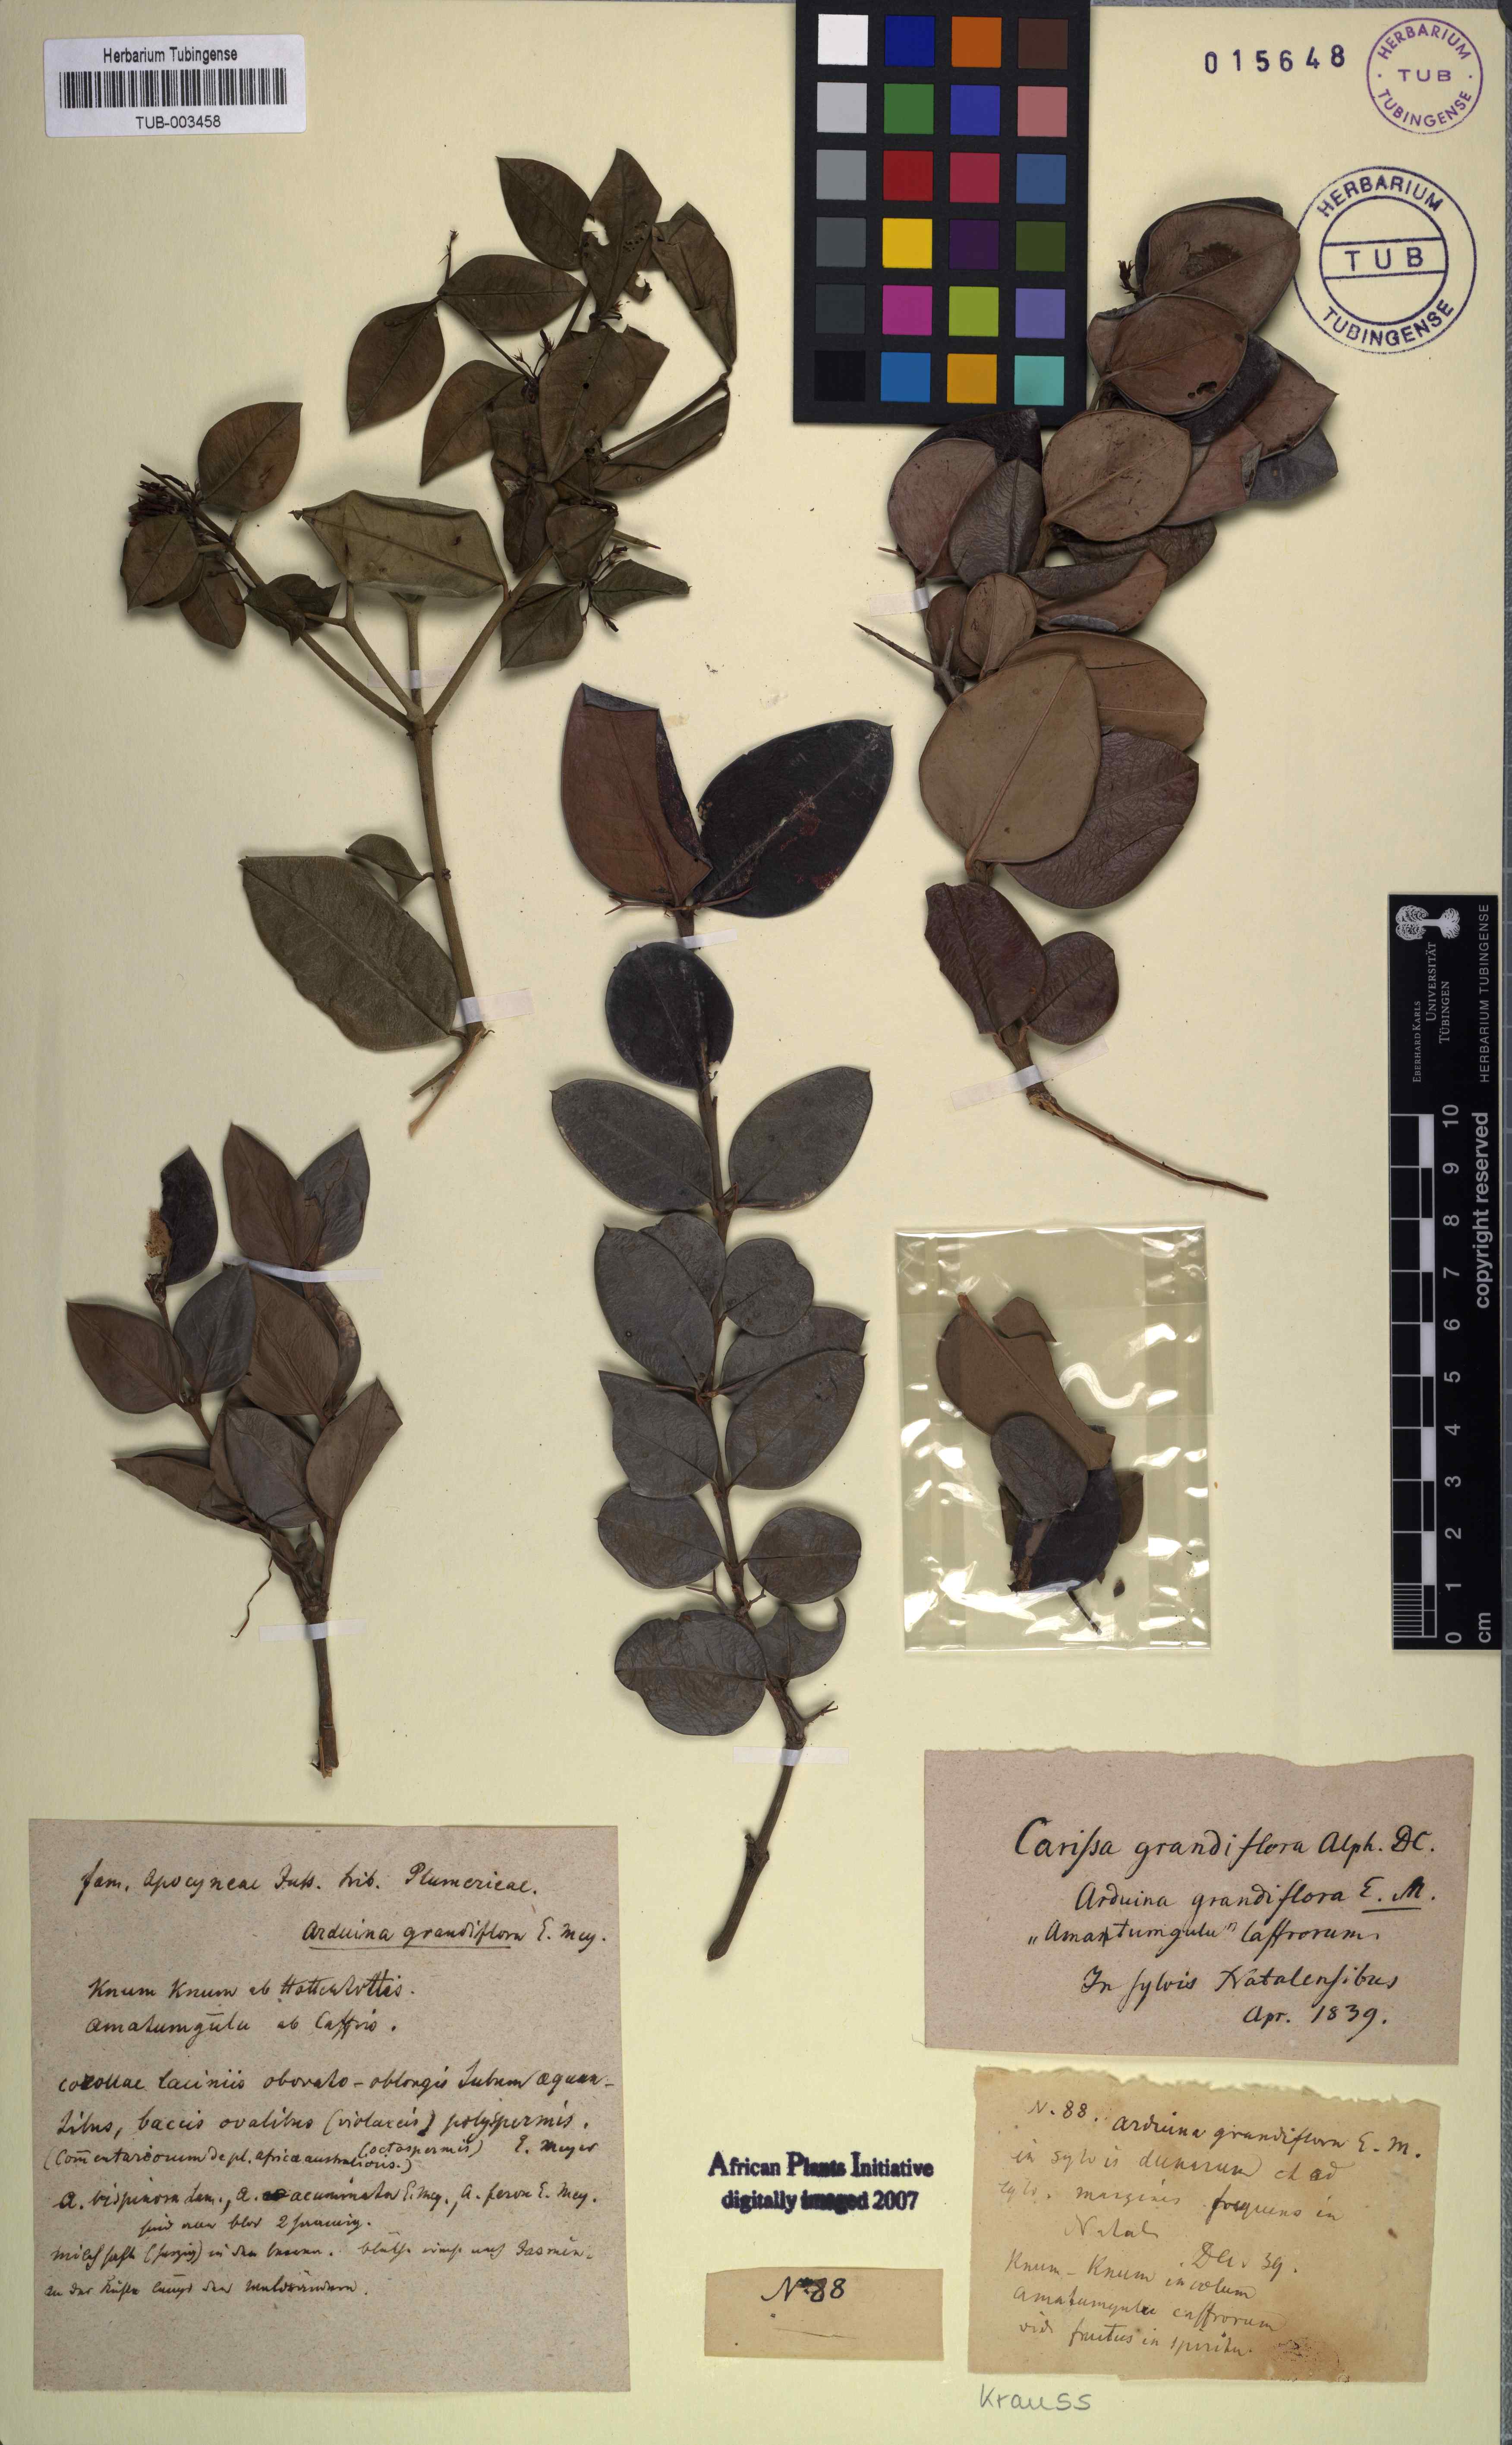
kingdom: Plantae
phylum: Tracheophyta
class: Magnoliopsida
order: Gentianales
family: Apocynaceae
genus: Carissa
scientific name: Carissa macrocarpa
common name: Natal plum
